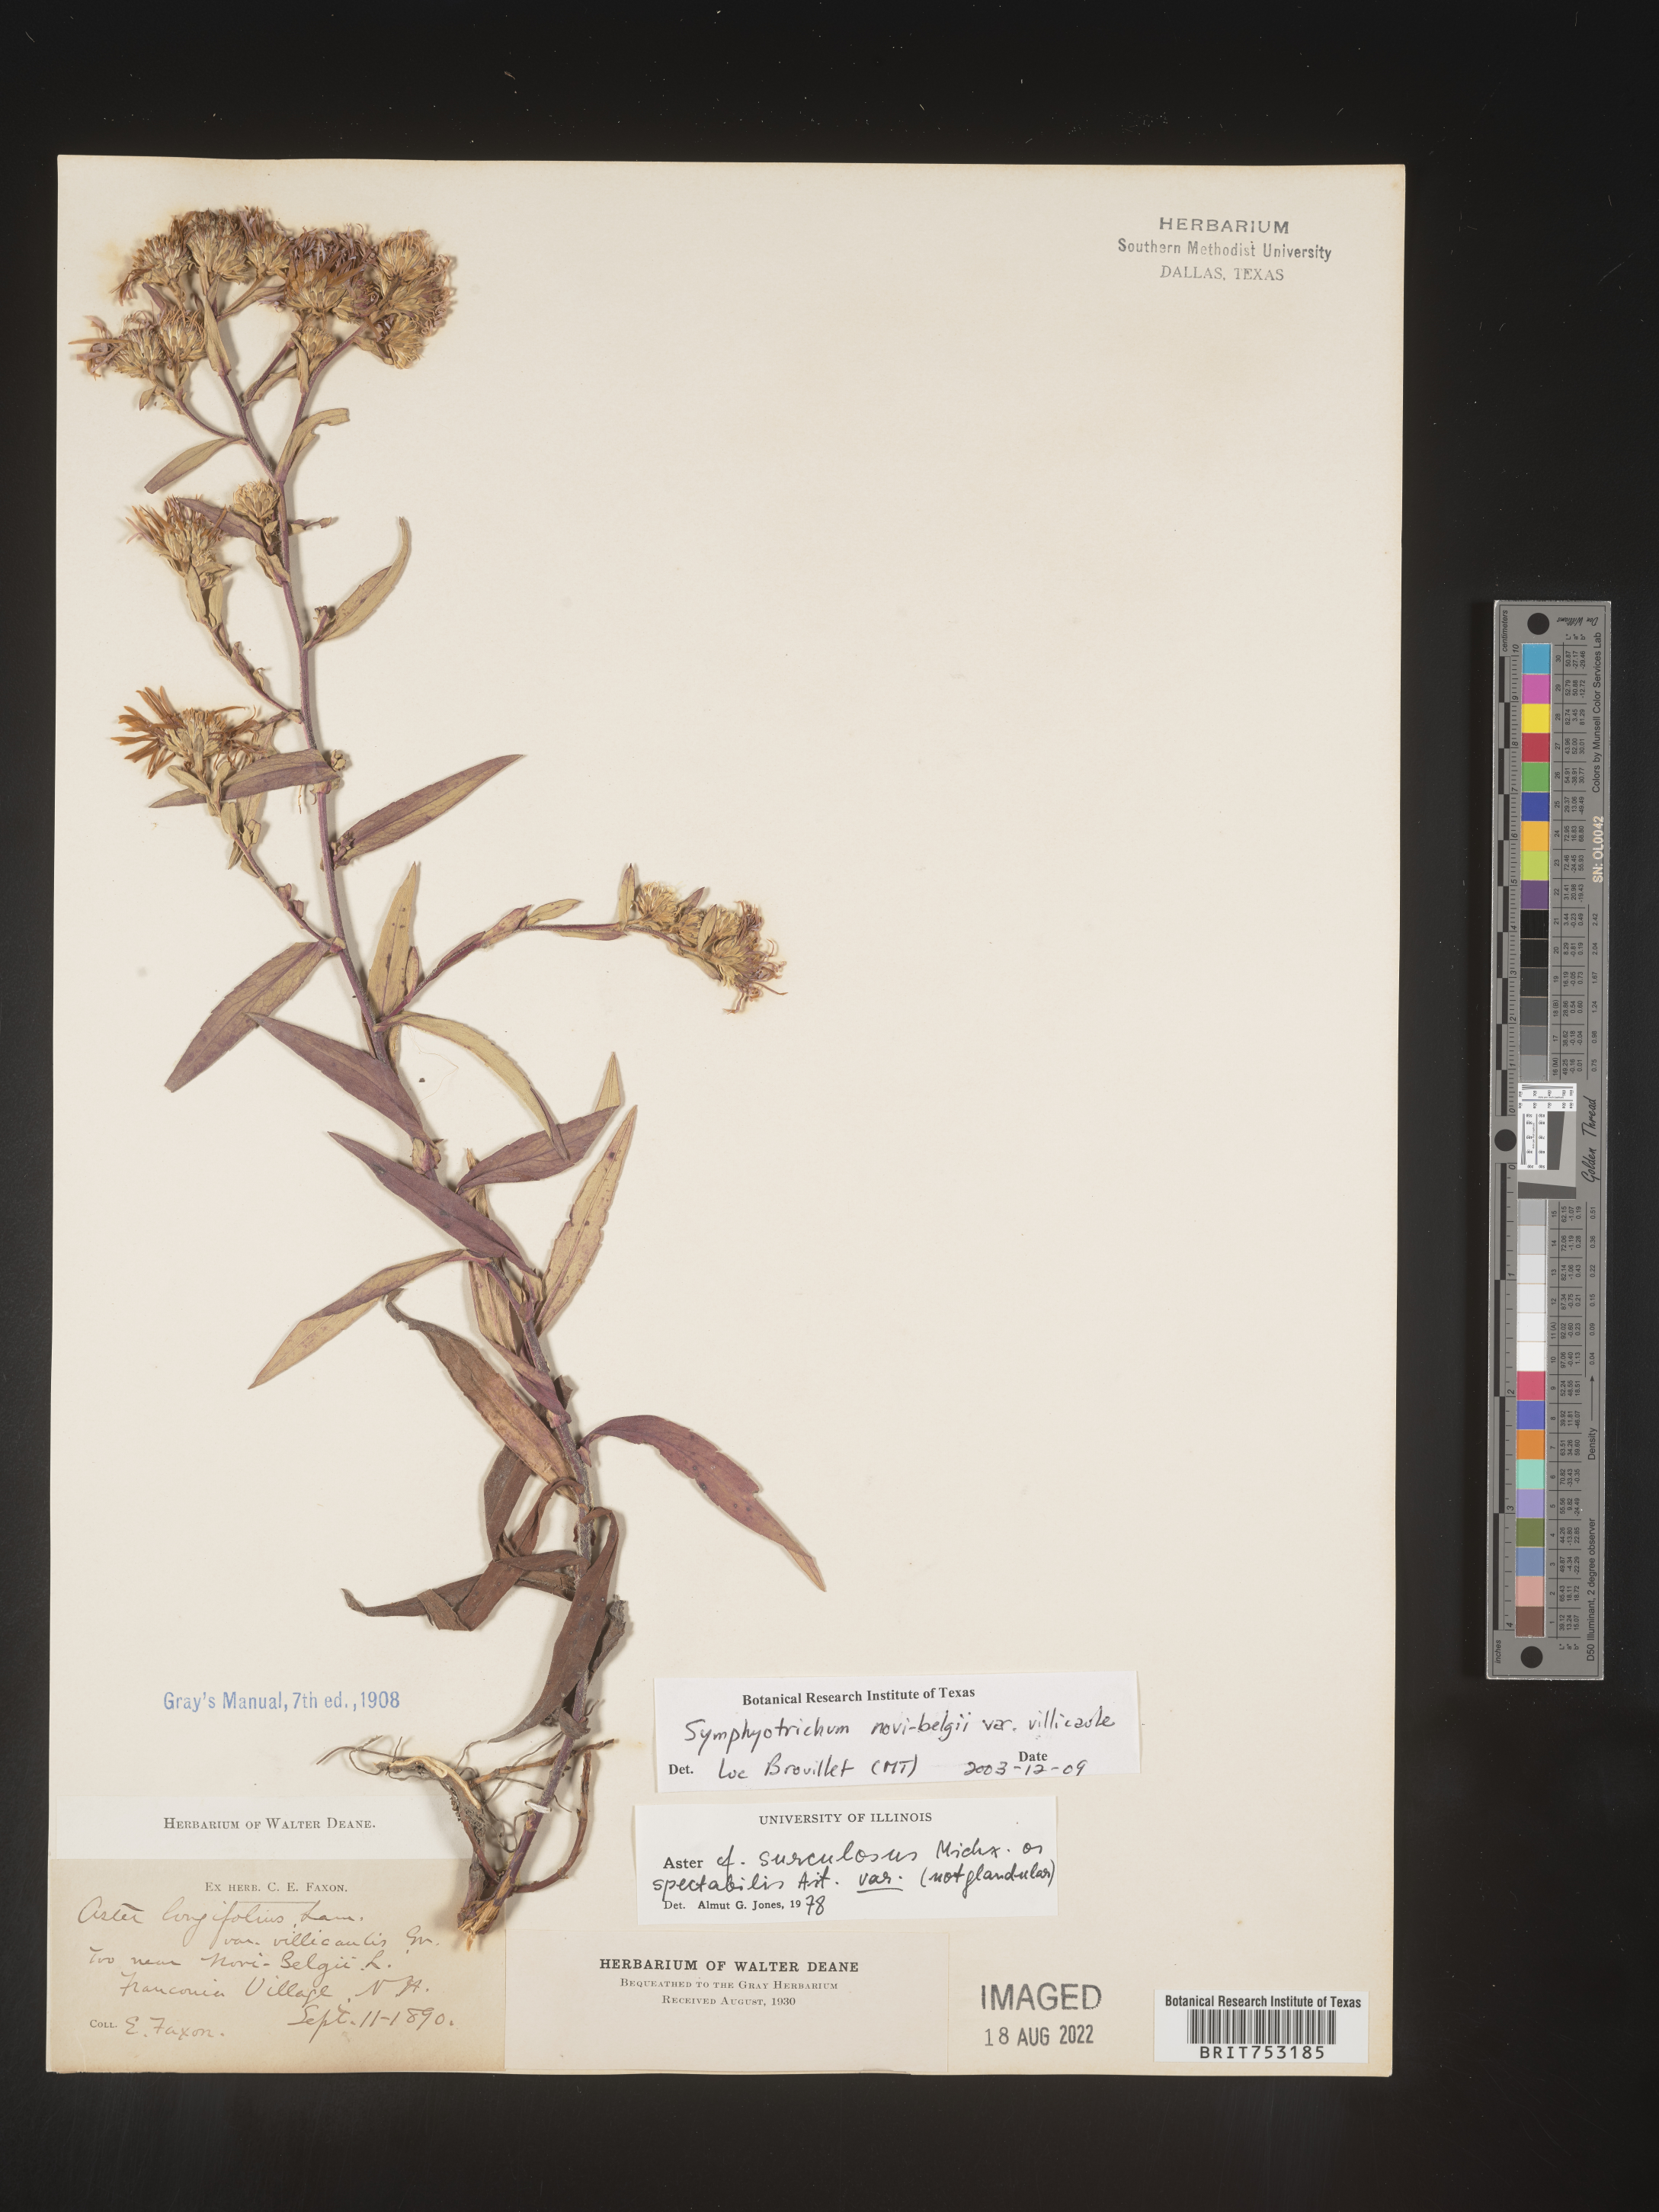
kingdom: Plantae
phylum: Tracheophyta
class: Magnoliopsida
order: Asterales
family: Asteraceae
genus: Symphyotrichum
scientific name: Symphyotrichum novi-belgii
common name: Michaelmas daisy
